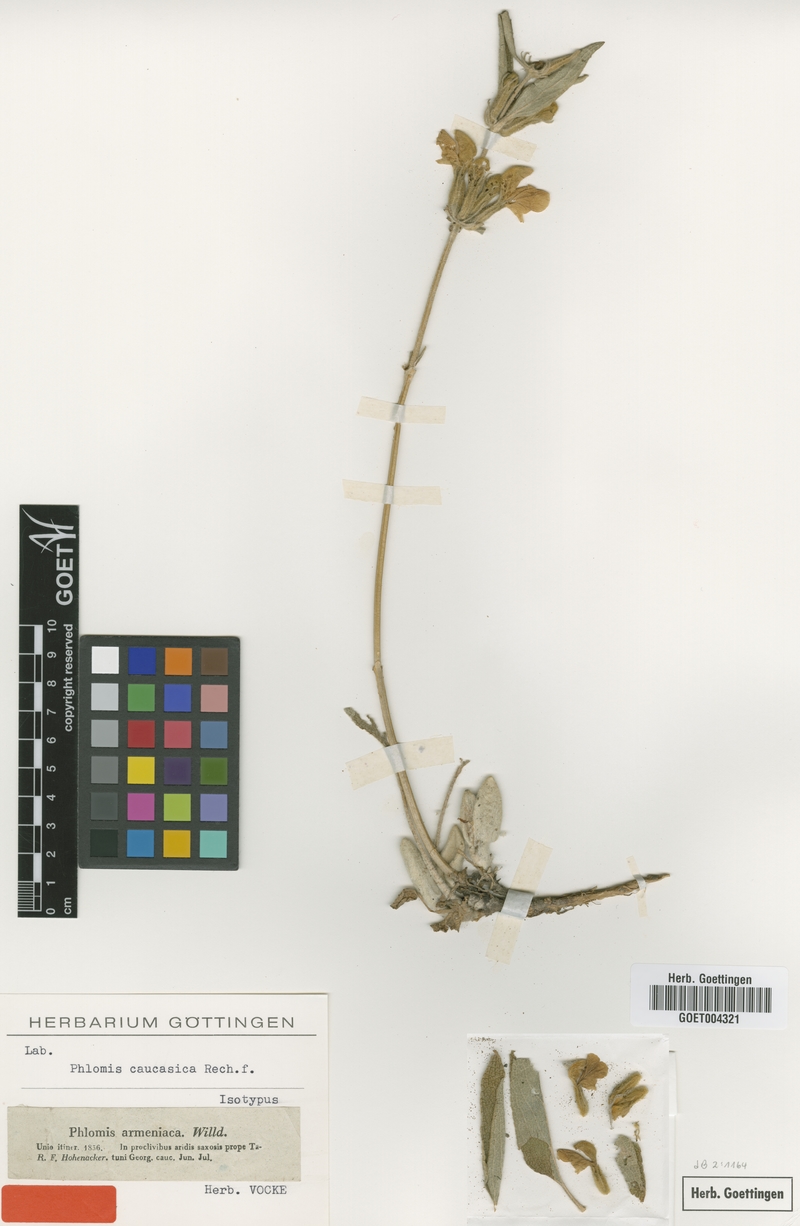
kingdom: Plantae
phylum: Tracheophyta
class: Magnoliopsida
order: Lamiales
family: Lamiaceae
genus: Phlomis
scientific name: Phlomis orientalis
